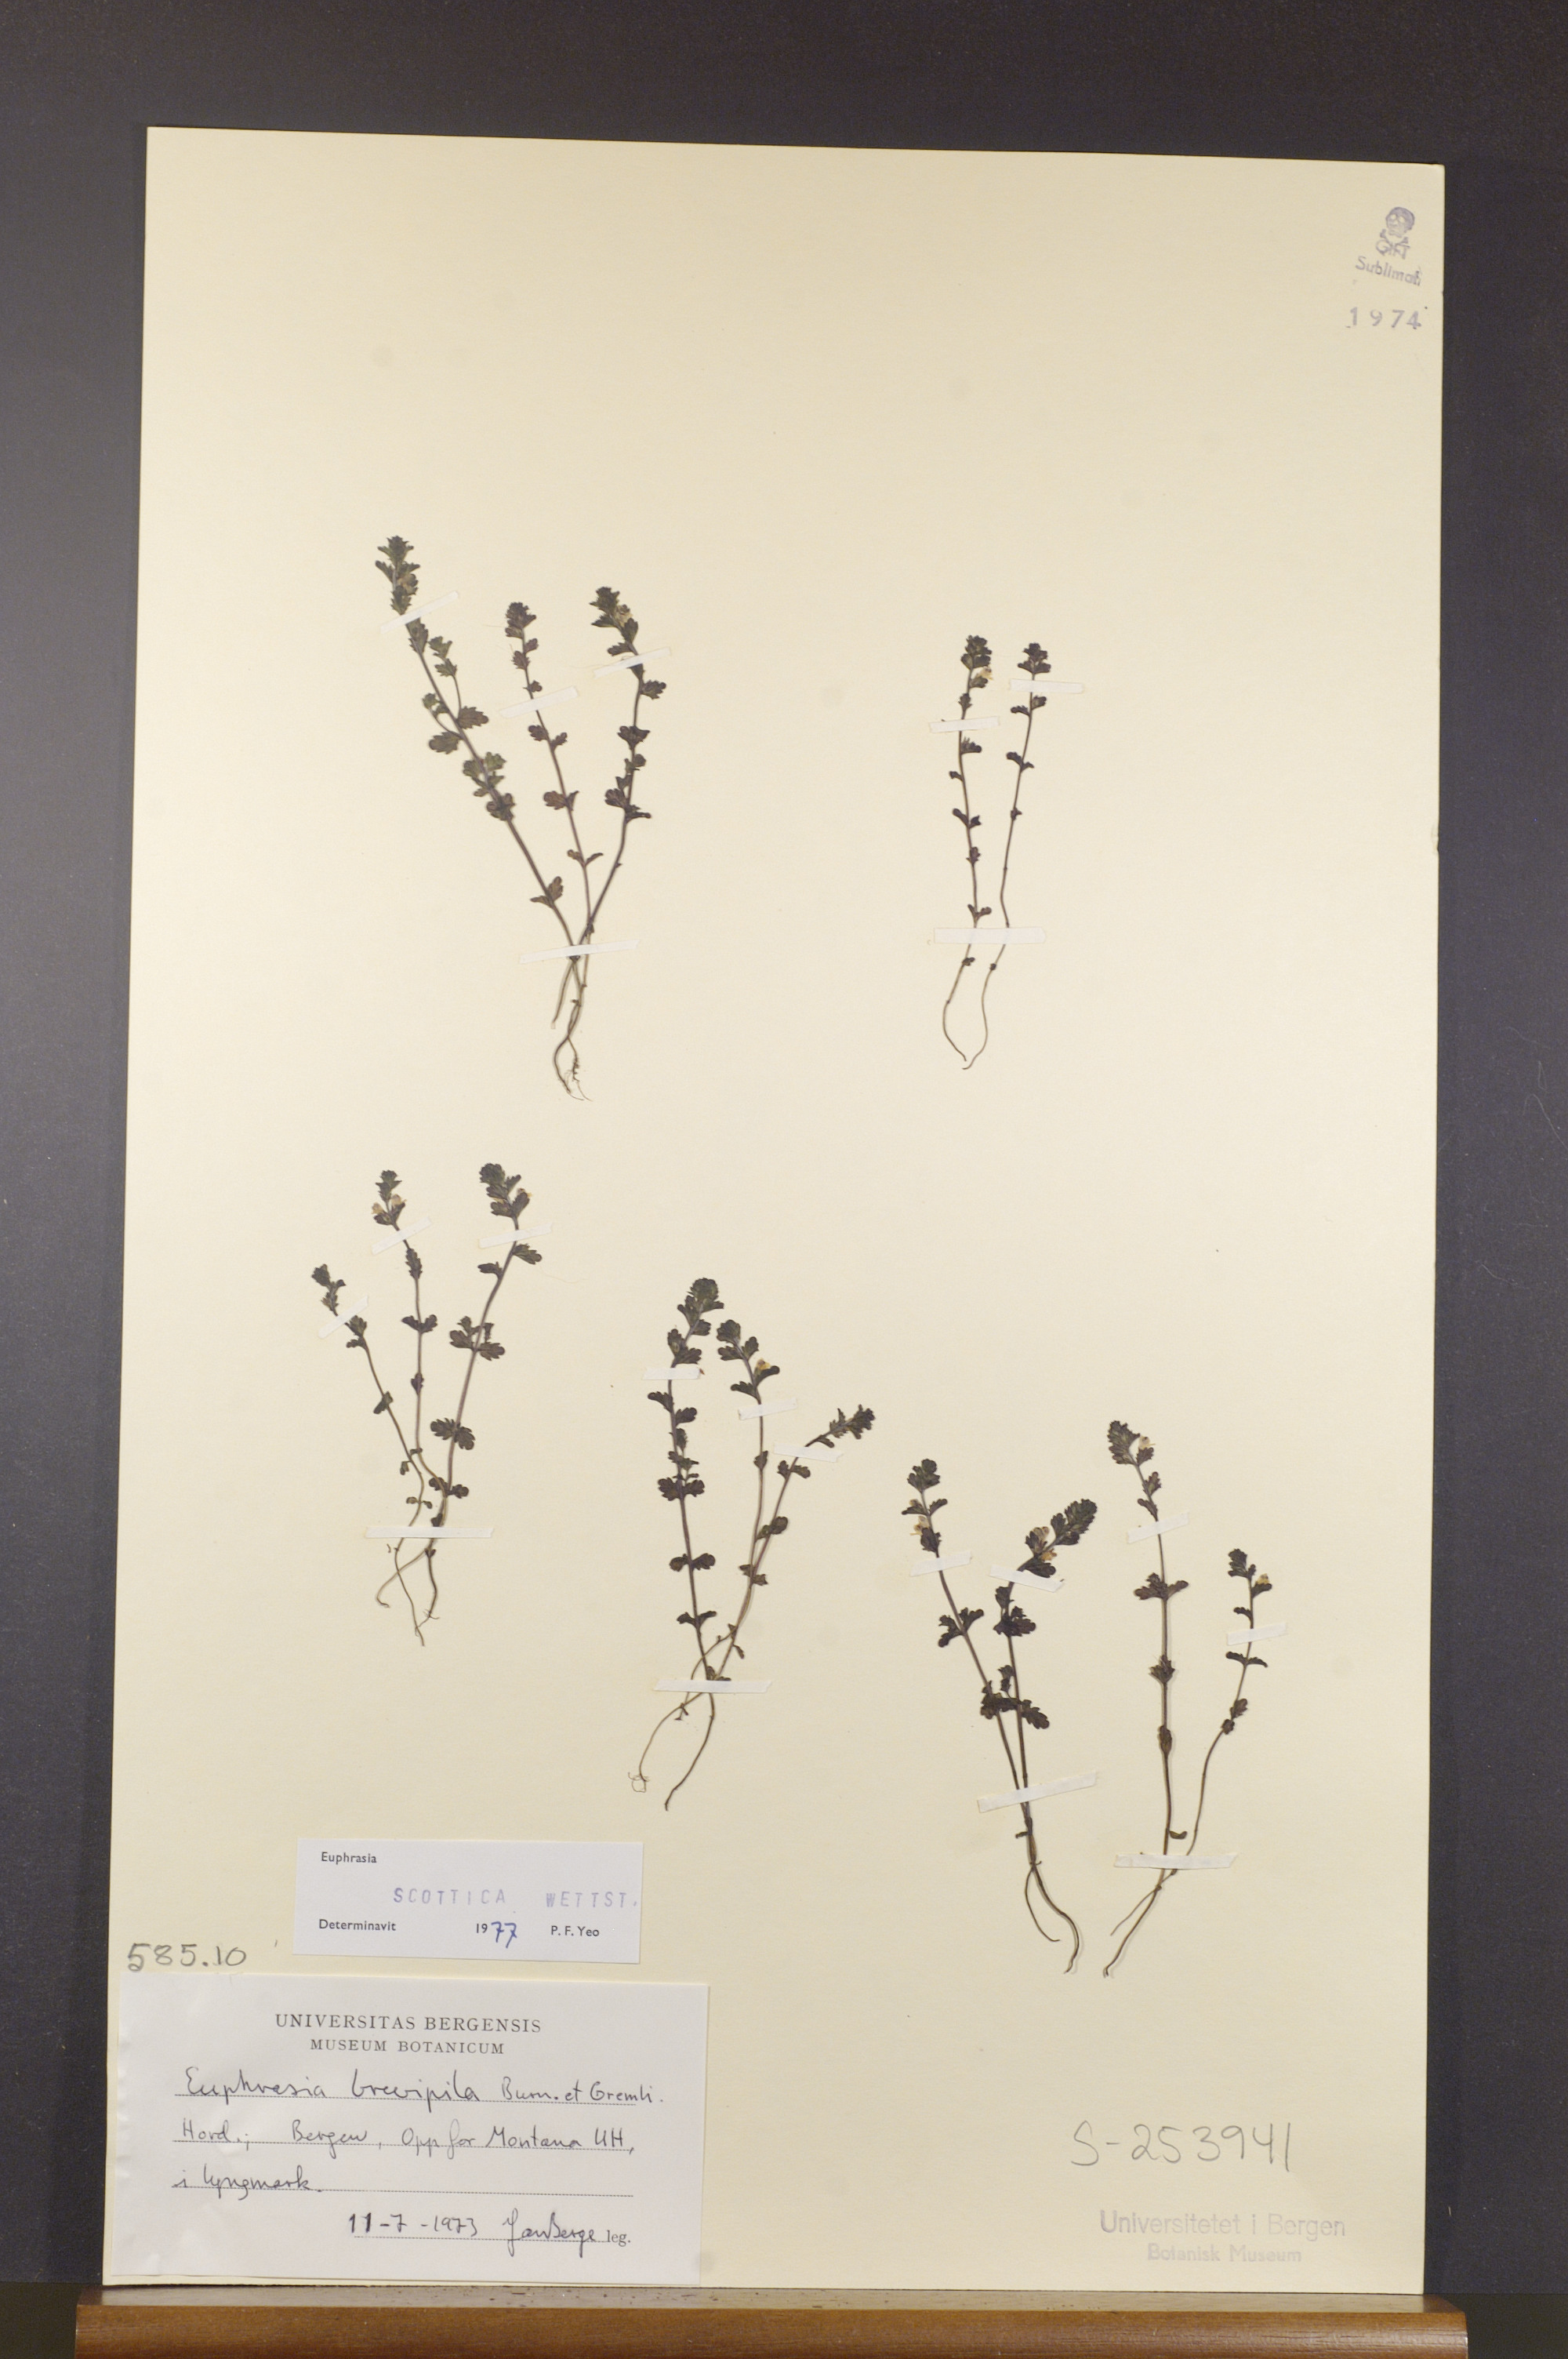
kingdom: Plantae
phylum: Tracheophyta
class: Magnoliopsida
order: Lamiales
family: Orobanchaceae
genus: Euphrasia
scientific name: Euphrasia scottica
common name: Slender scottish eyebright
